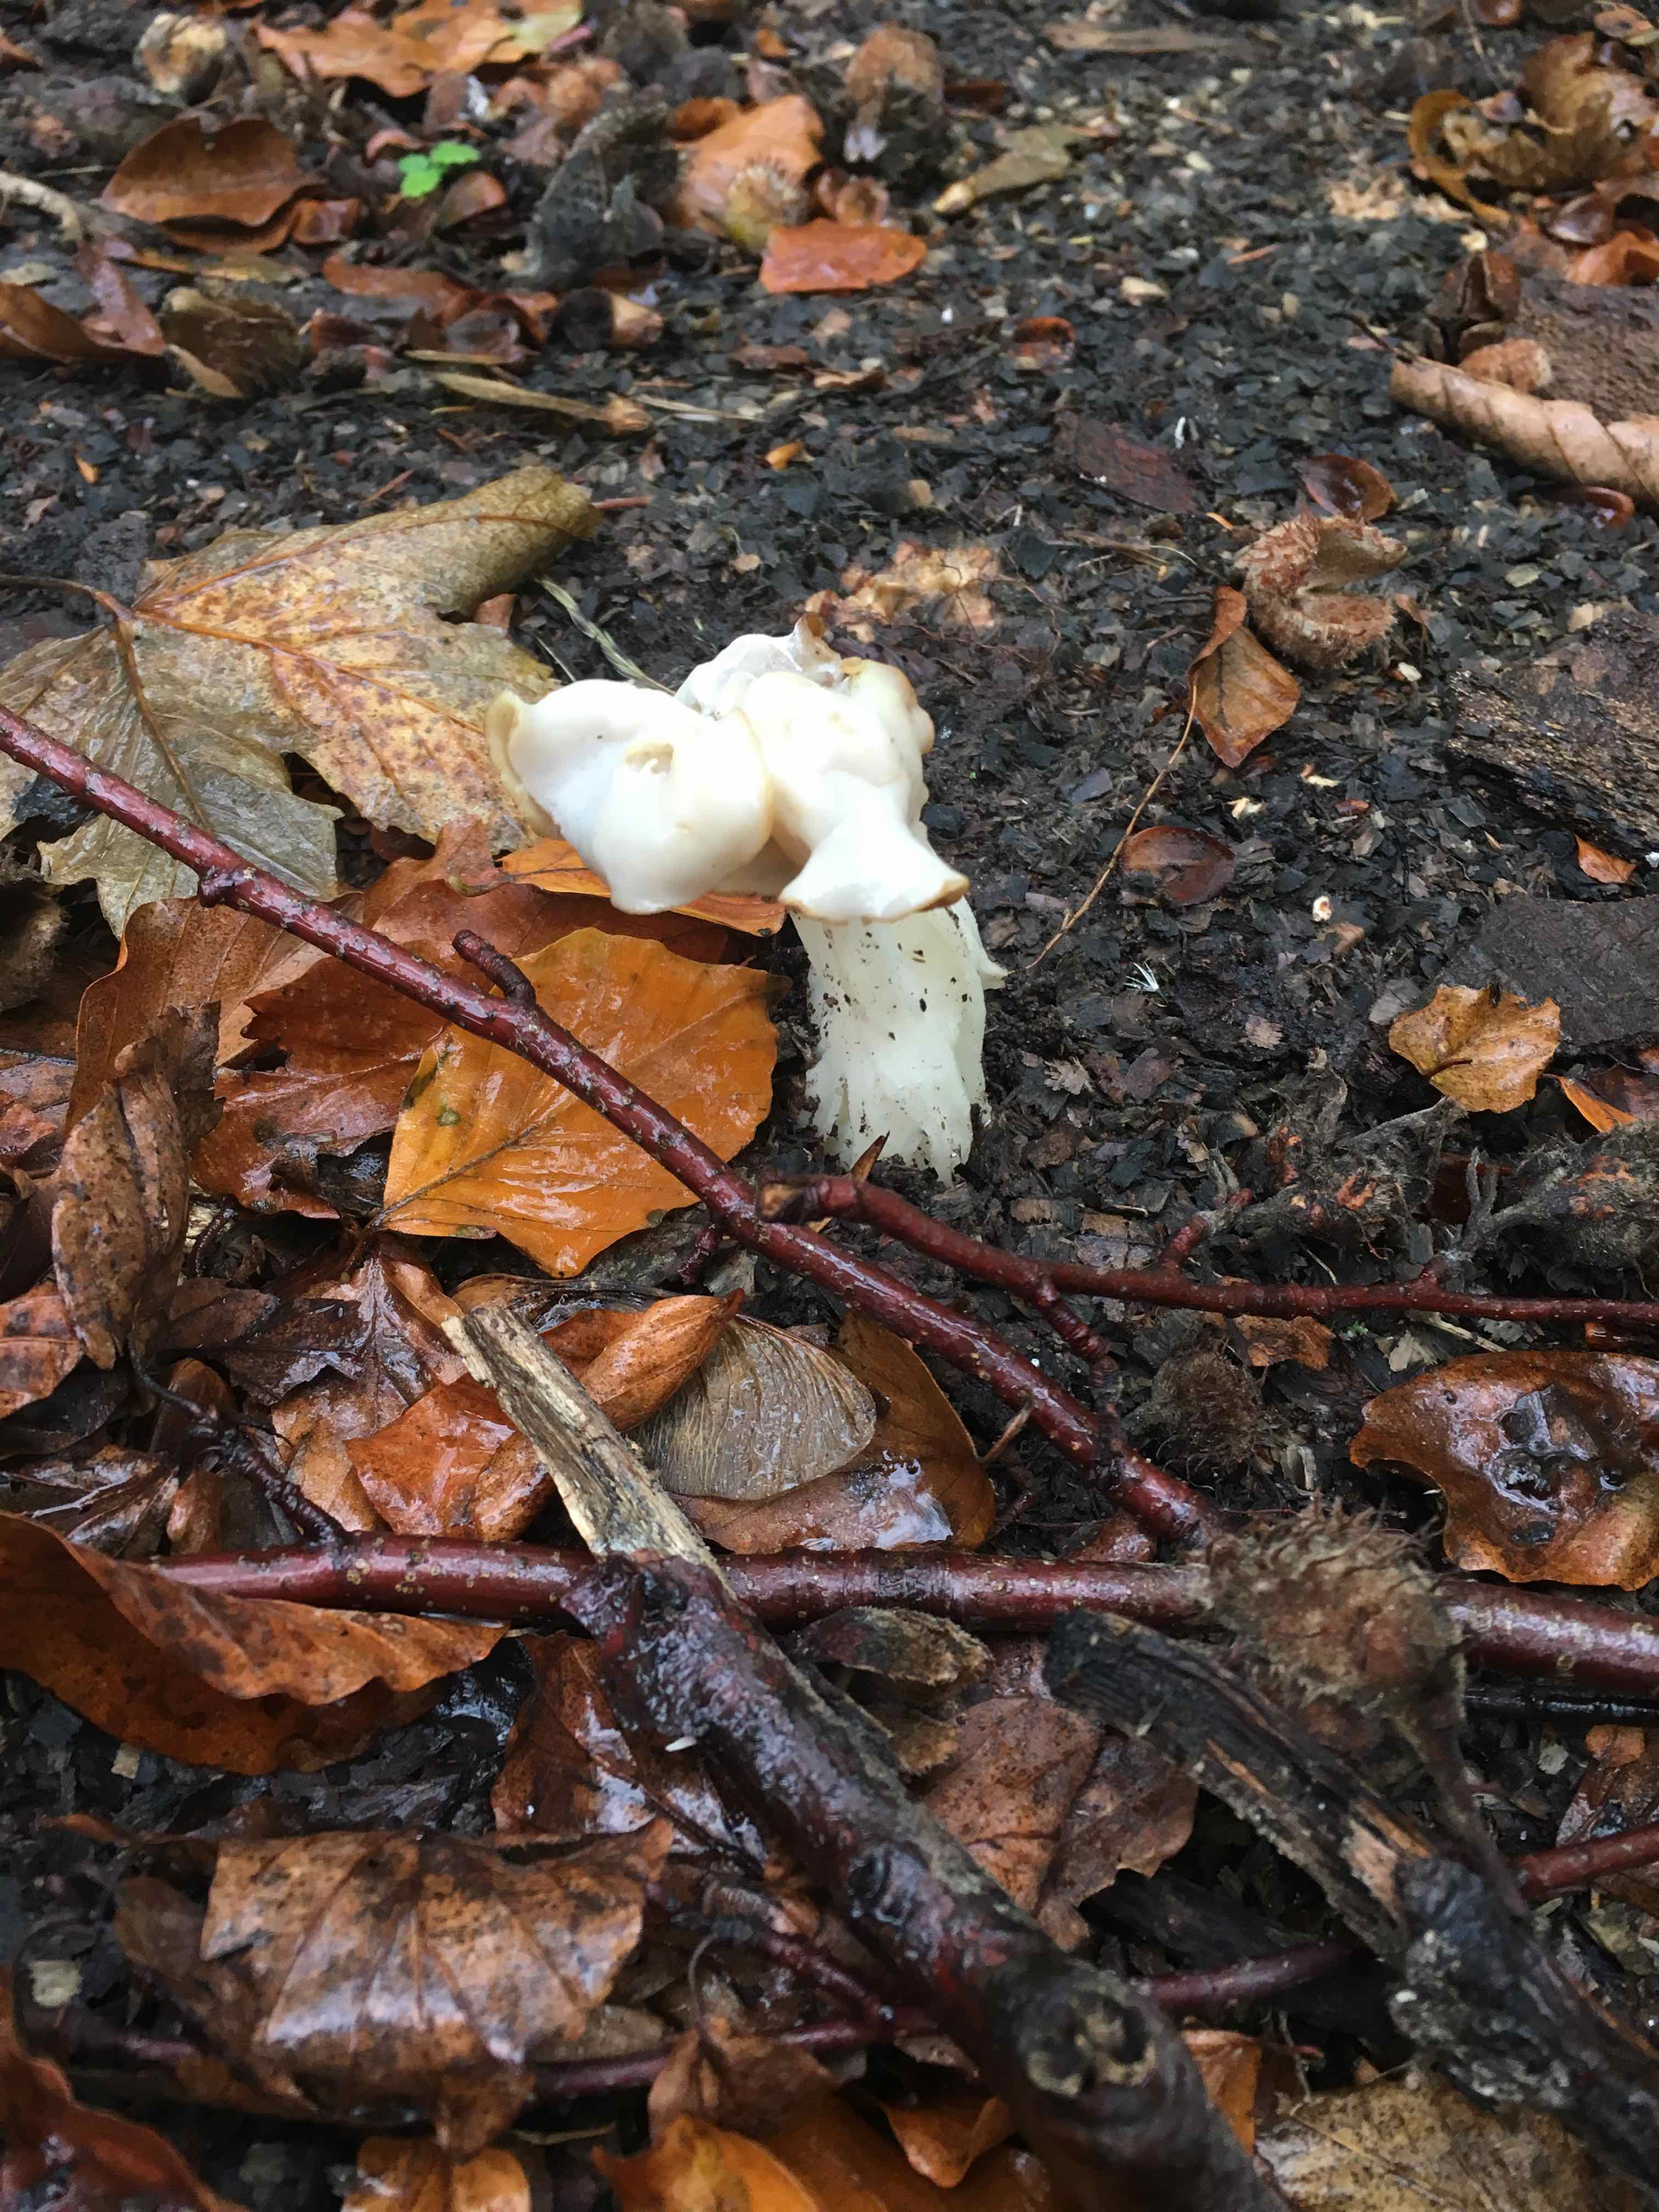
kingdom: Fungi
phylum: Ascomycota
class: Pezizomycetes
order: Pezizales
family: Helvellaceae
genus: Helvella
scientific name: Helvella crispa
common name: kruset foldhat
